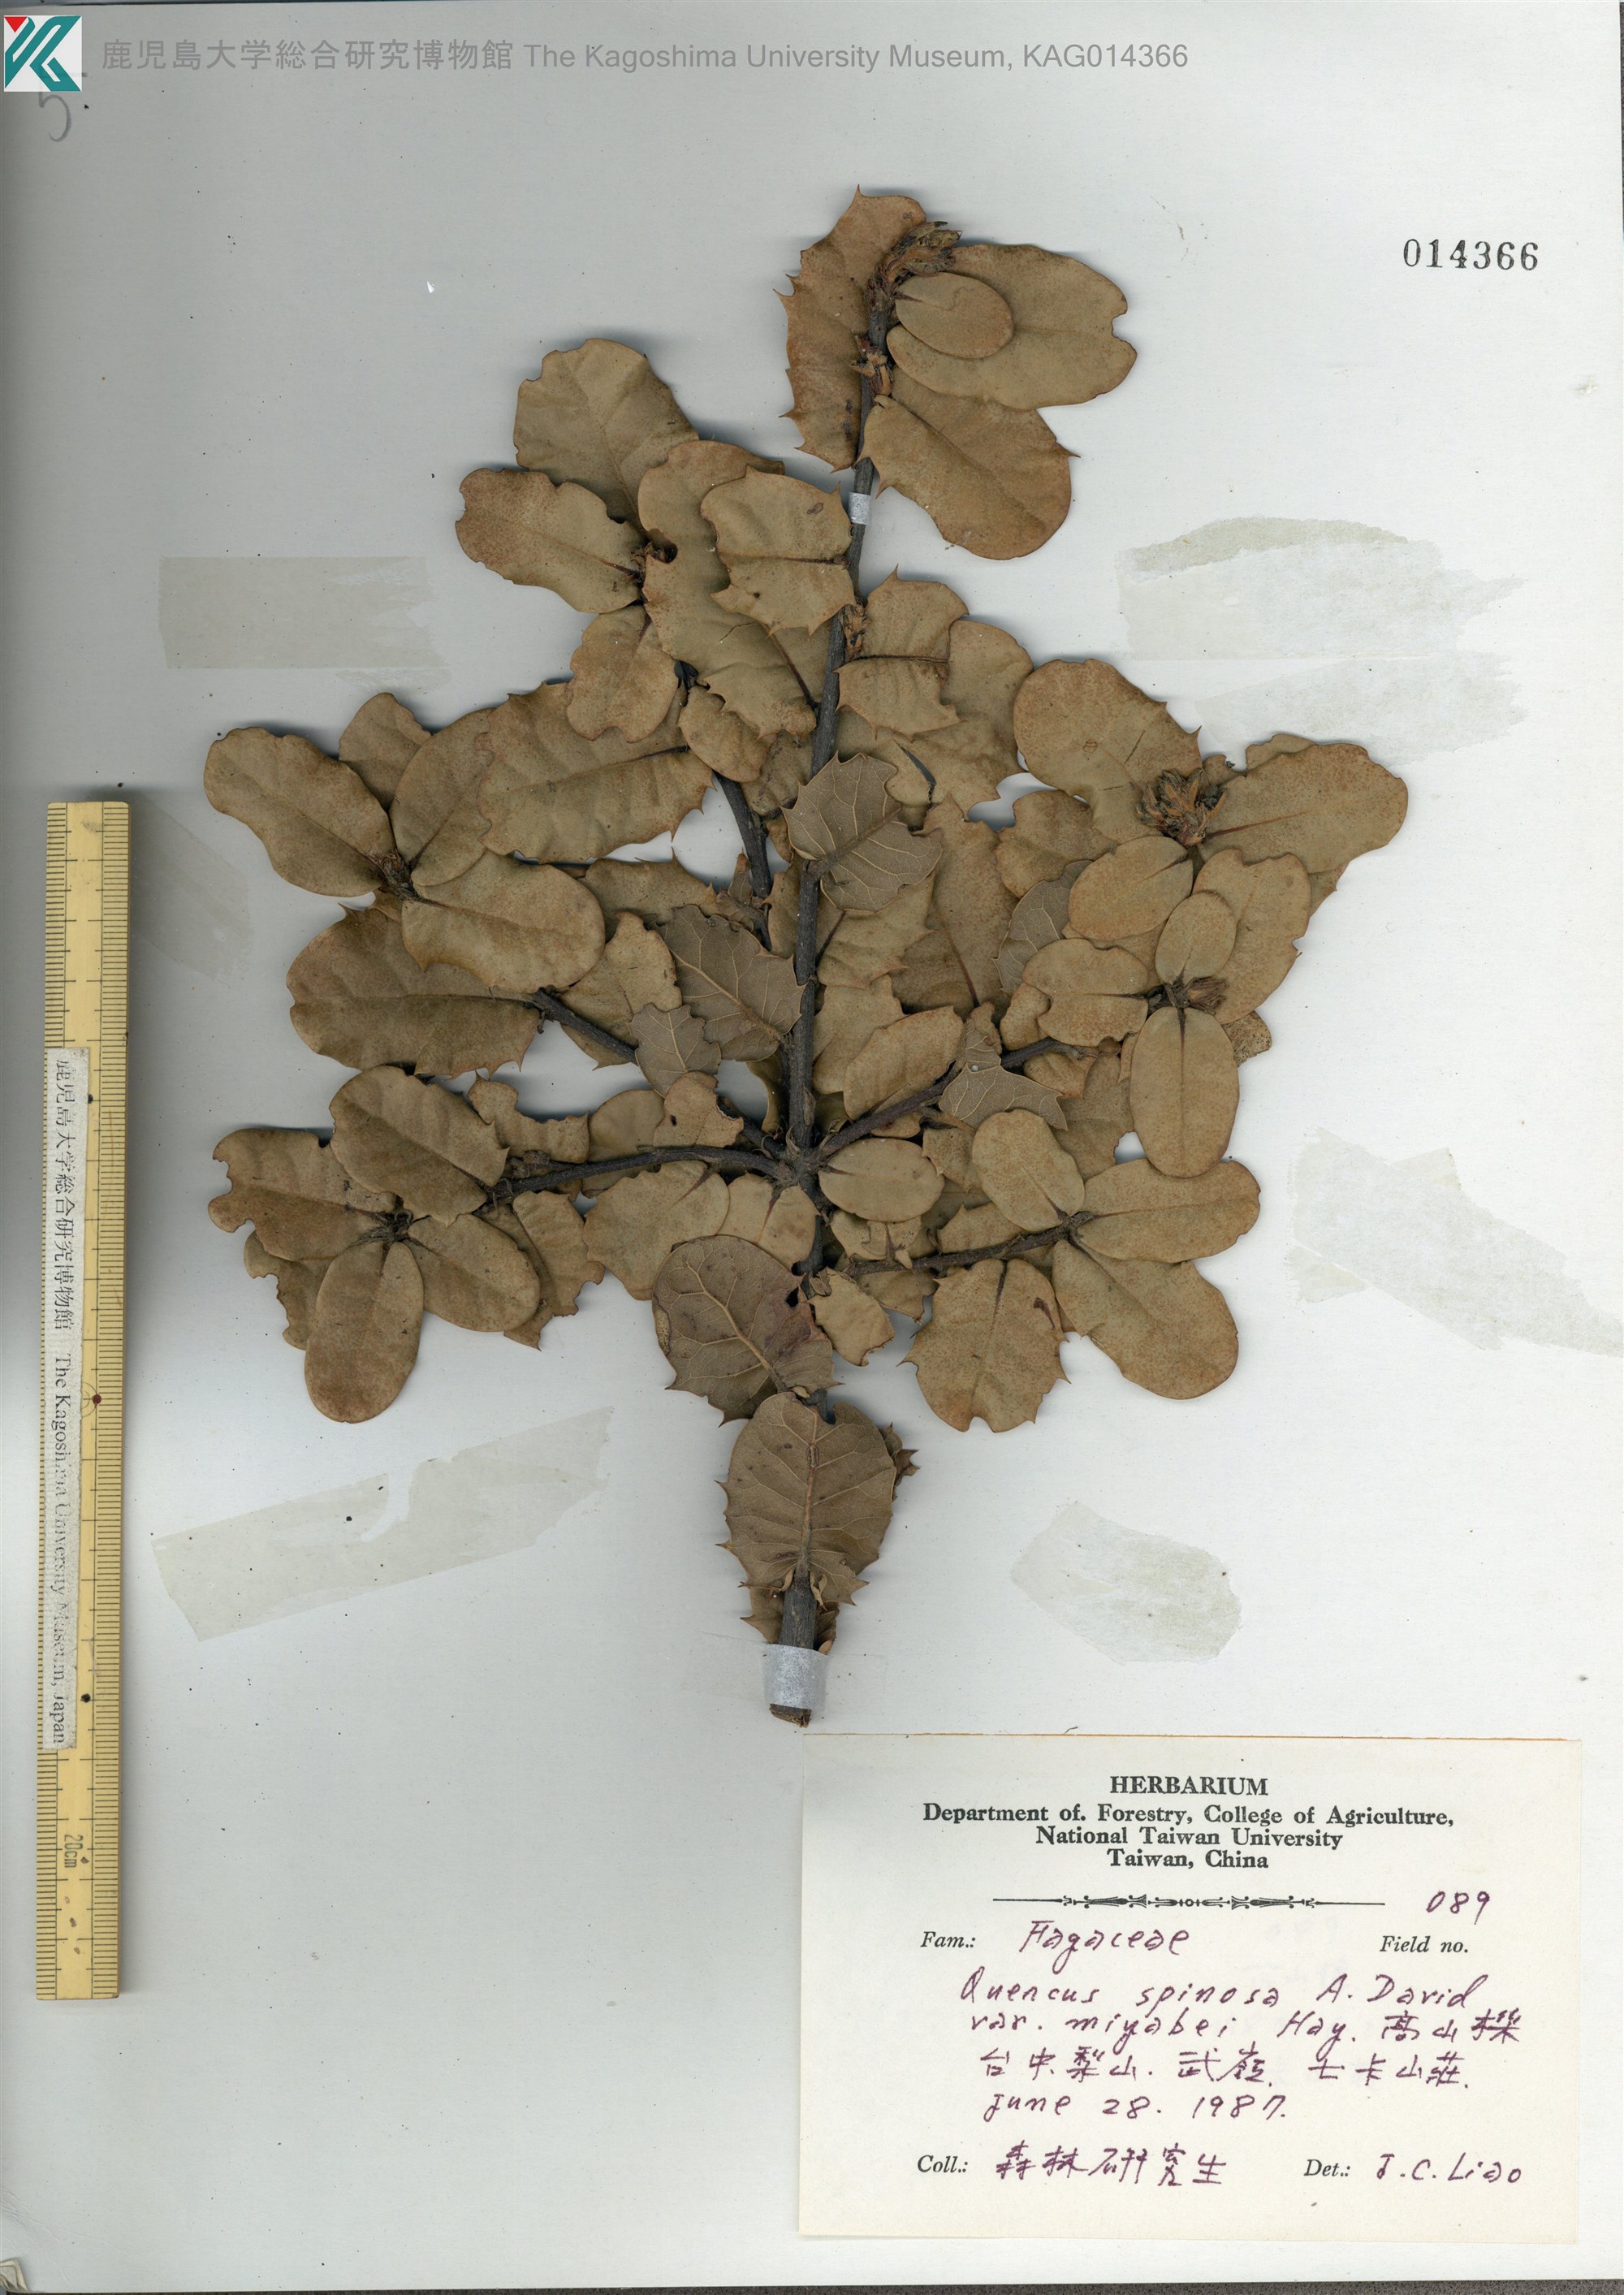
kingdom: Plantae
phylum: Tracheophyta
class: Magnoliopsida
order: Fagales
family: Fagaceae
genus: Quercus
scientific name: Quercus spinosa
